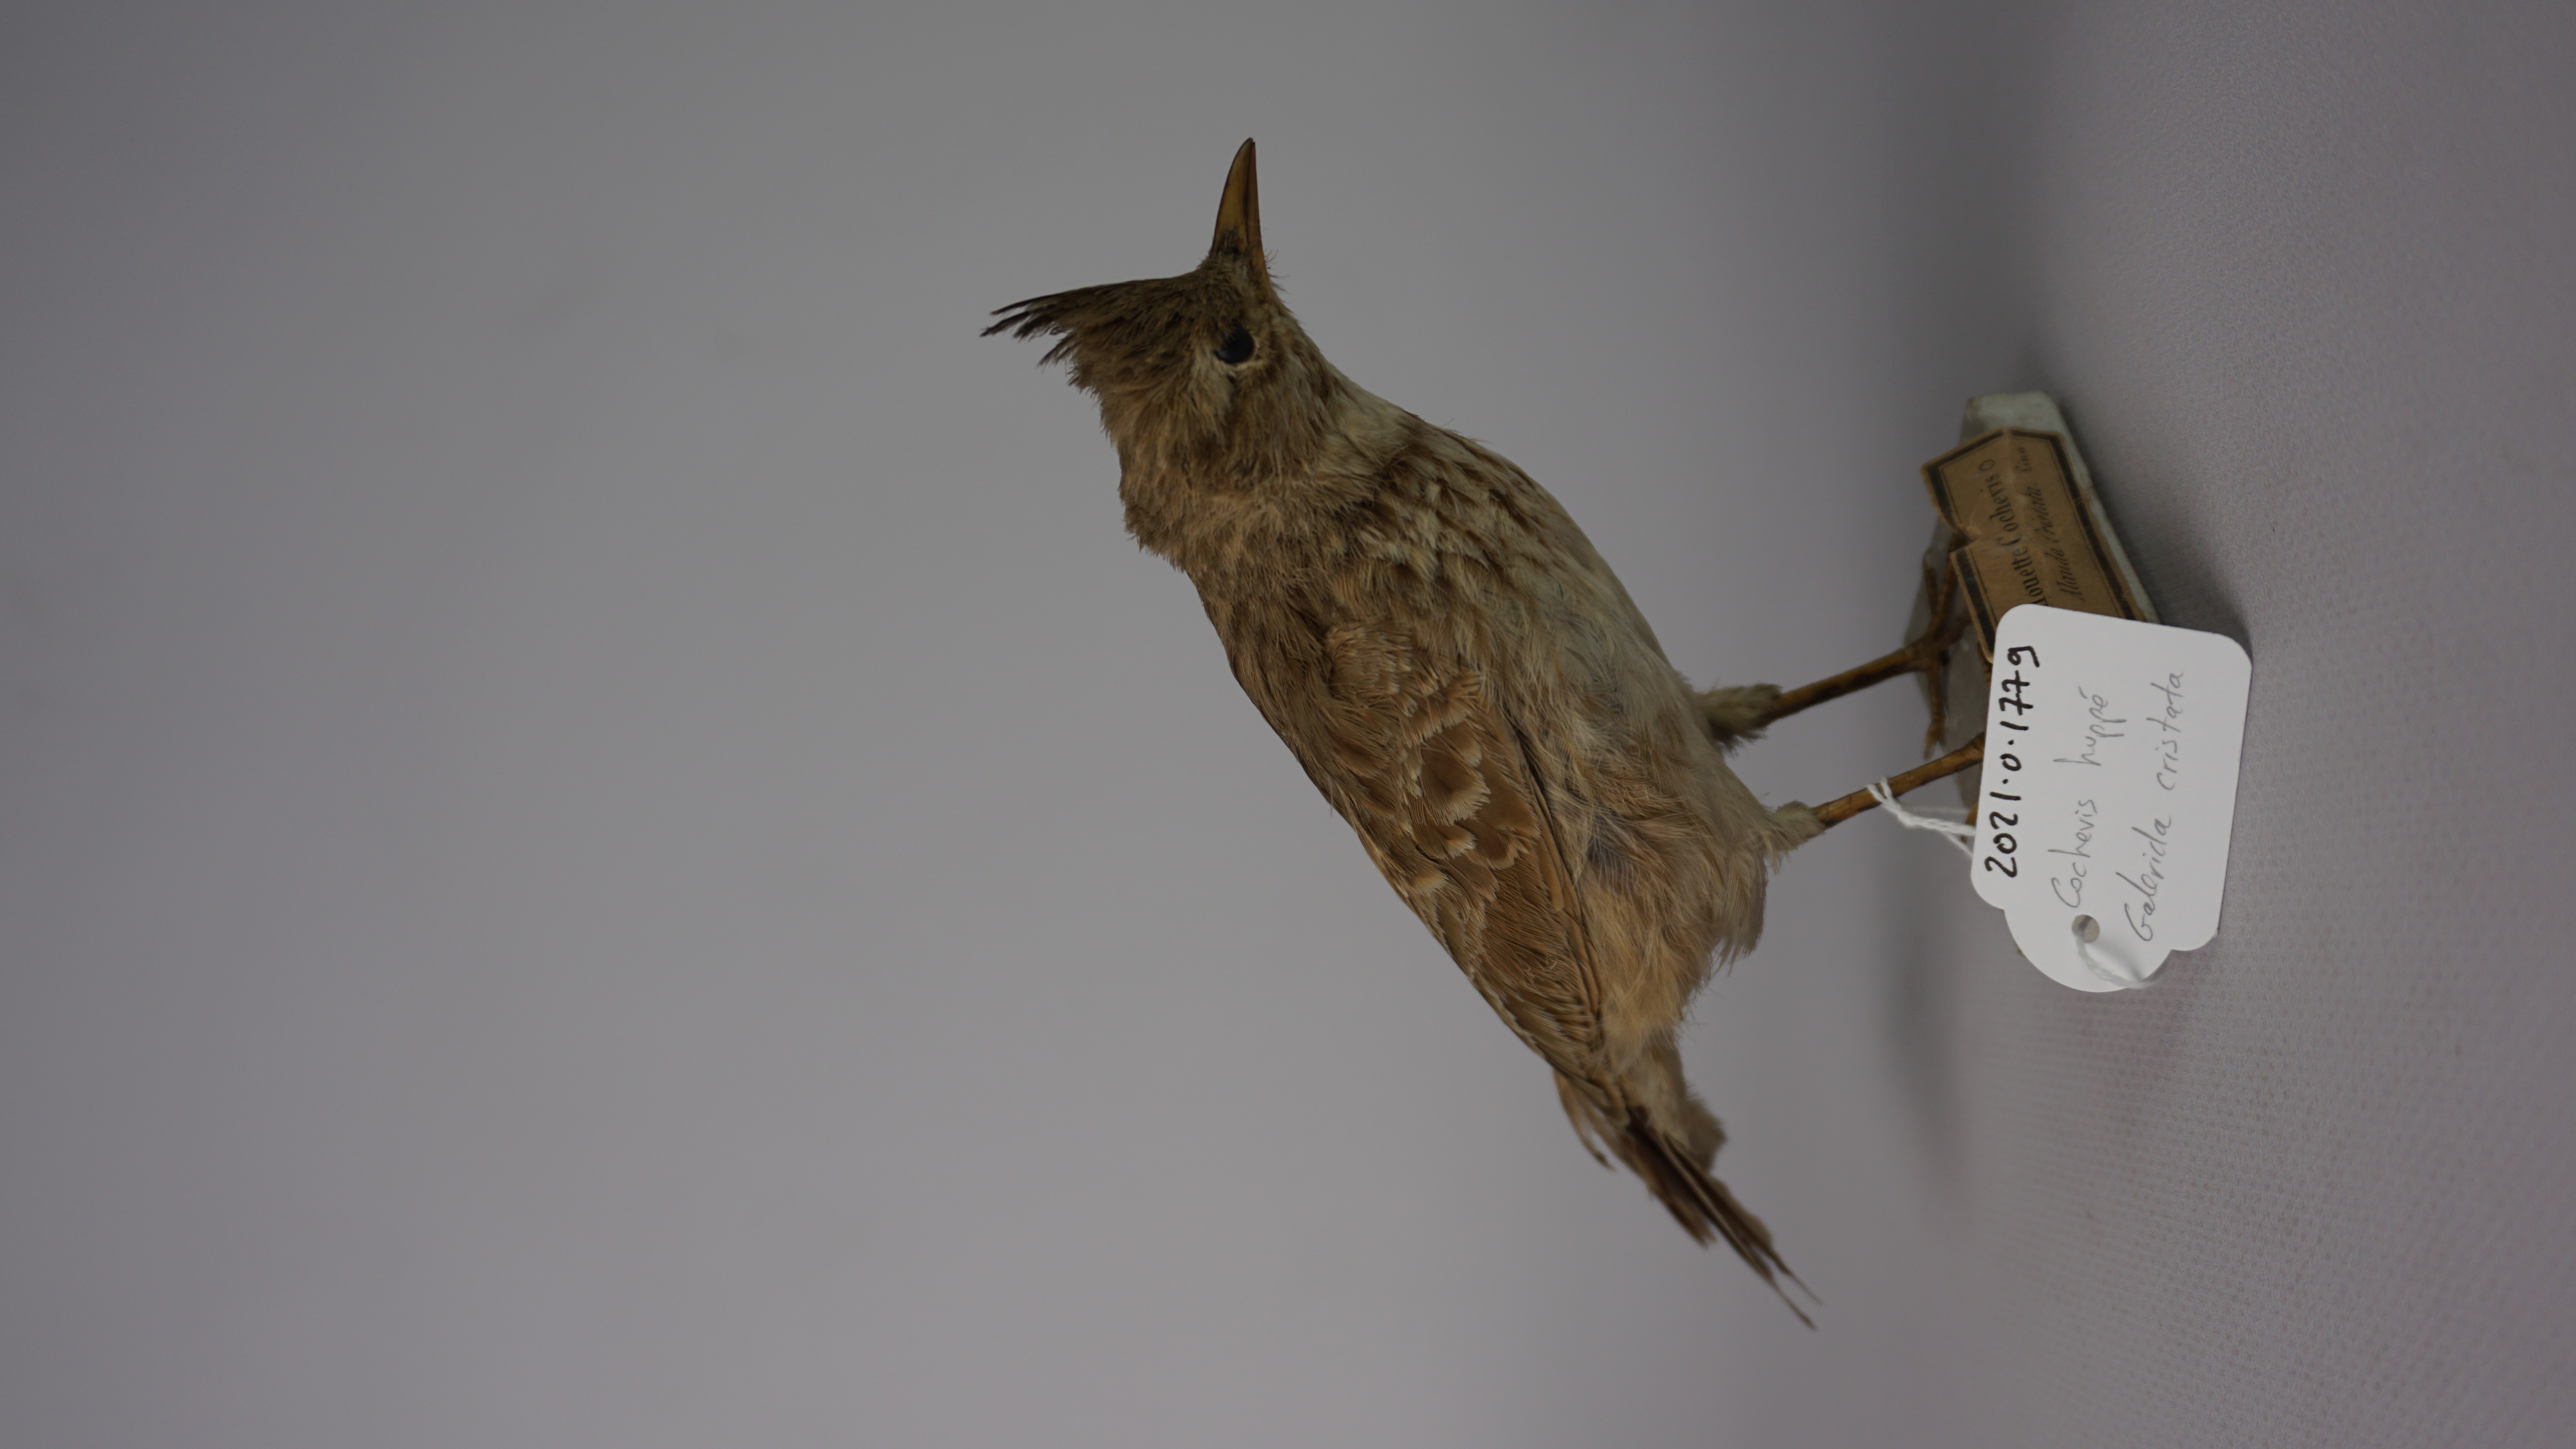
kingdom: Animalia
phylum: Chordata
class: Aves
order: Passeriformes
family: Alaudidae
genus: Galerida
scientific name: Galerida cristata
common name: Crested lark
